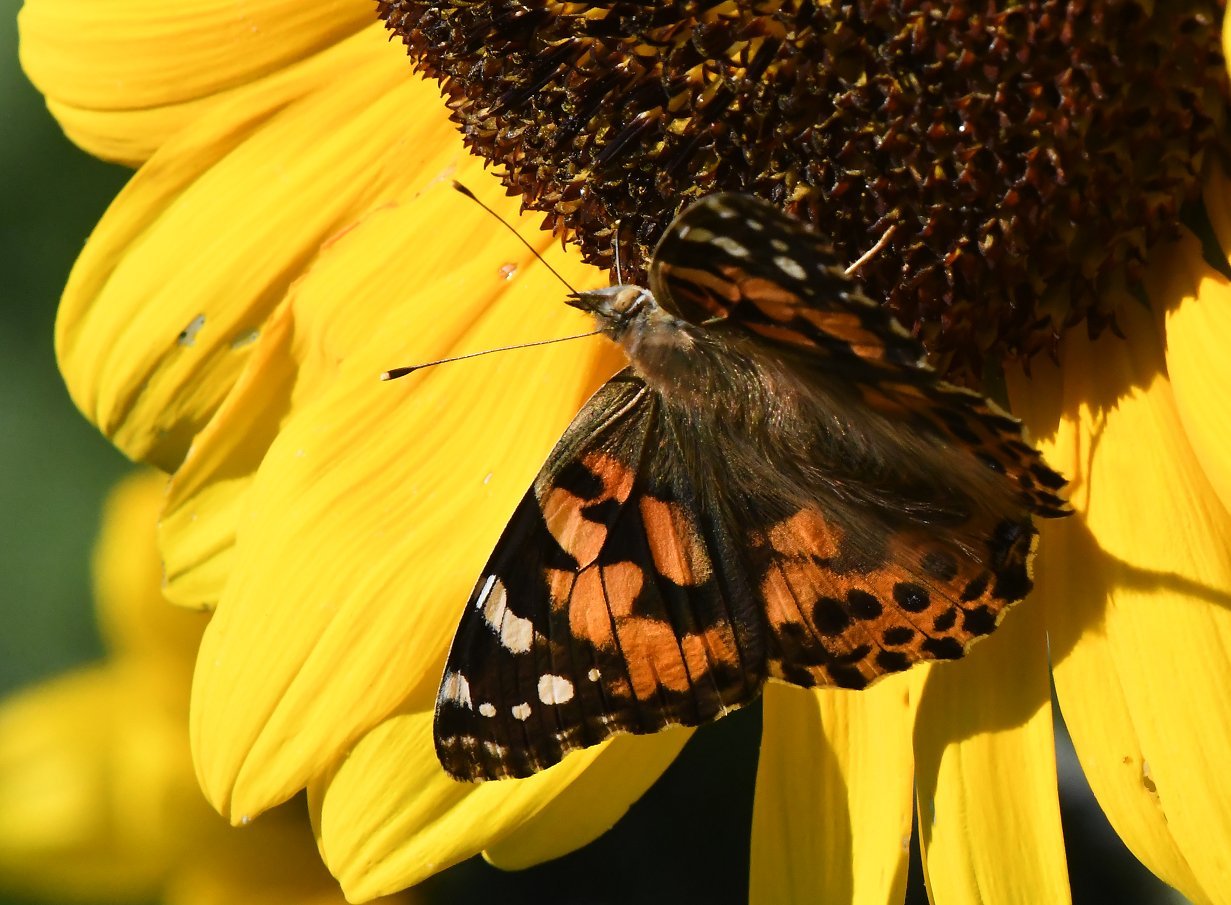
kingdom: Animalia
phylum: Arthropoda
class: Insecta
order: Lepidoptera
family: Nymphalidae
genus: Vanessa
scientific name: Vanessa cardui
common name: Painted Lady
